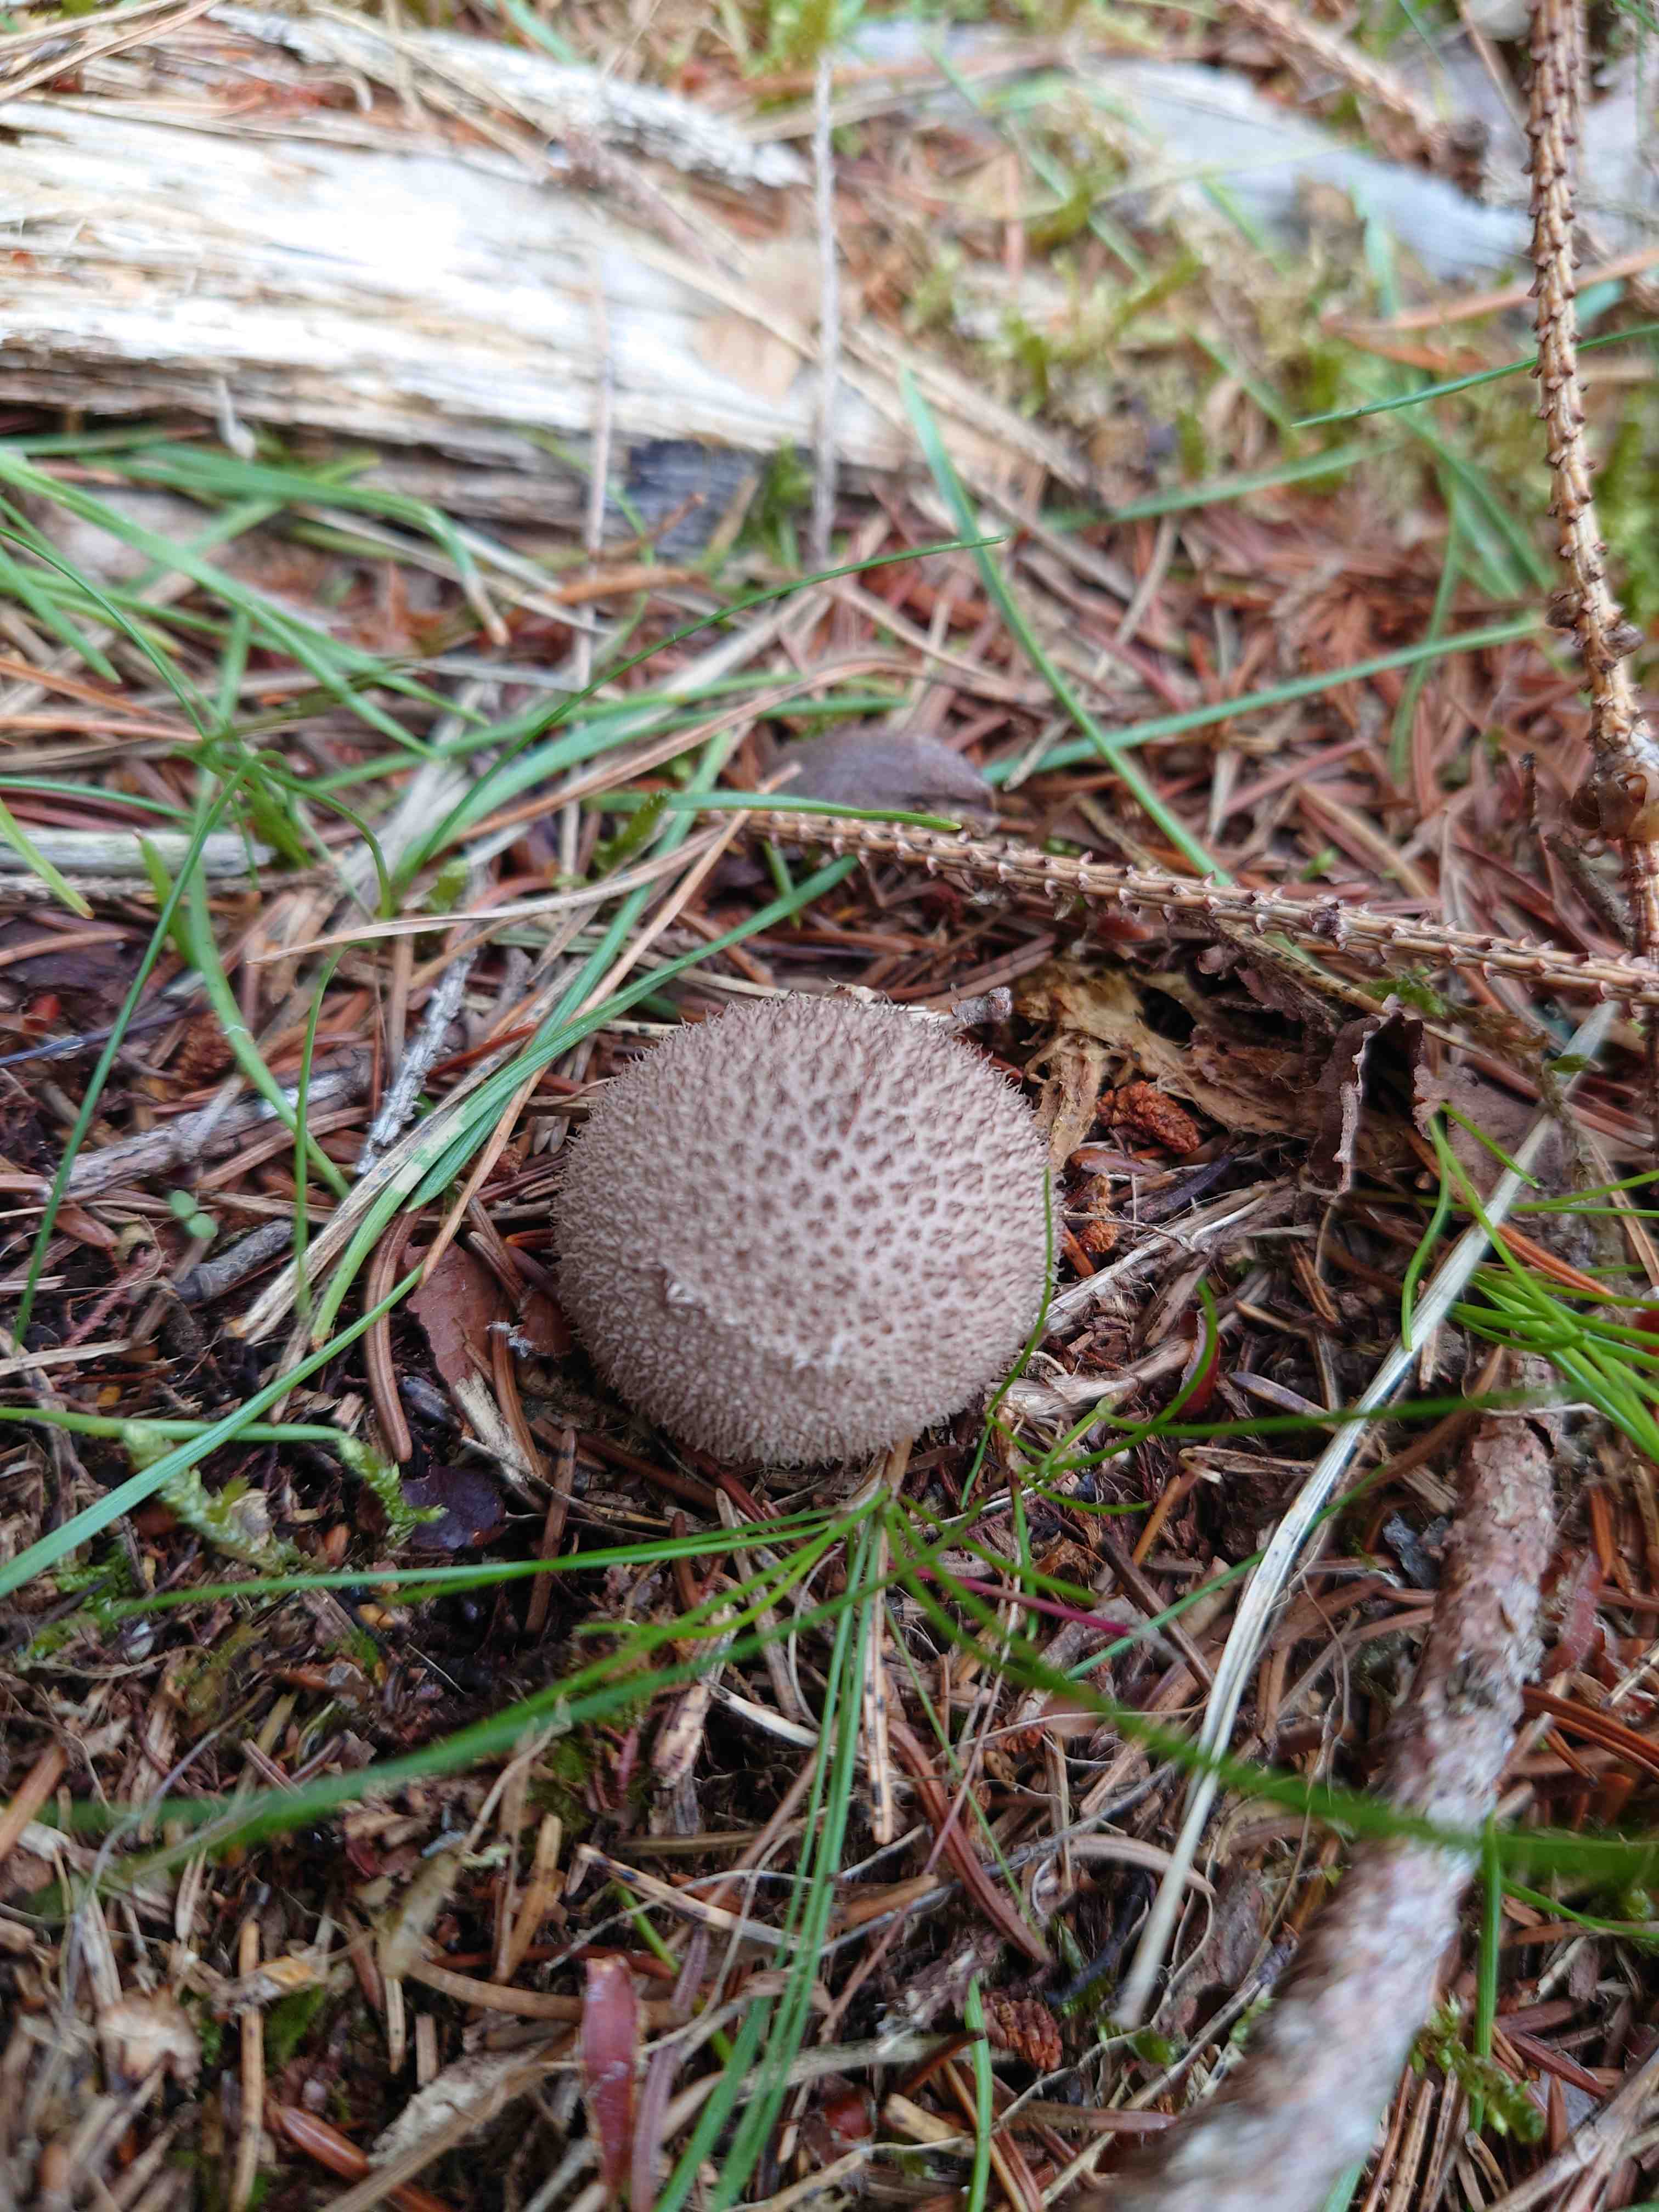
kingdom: Fungi
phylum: Basidiomycota
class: Agaricomycetes
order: Agaricales
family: Lycoperdaceae
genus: Lycoperdon
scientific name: Lycoperdon nigrescens
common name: sortagtig støvbold
